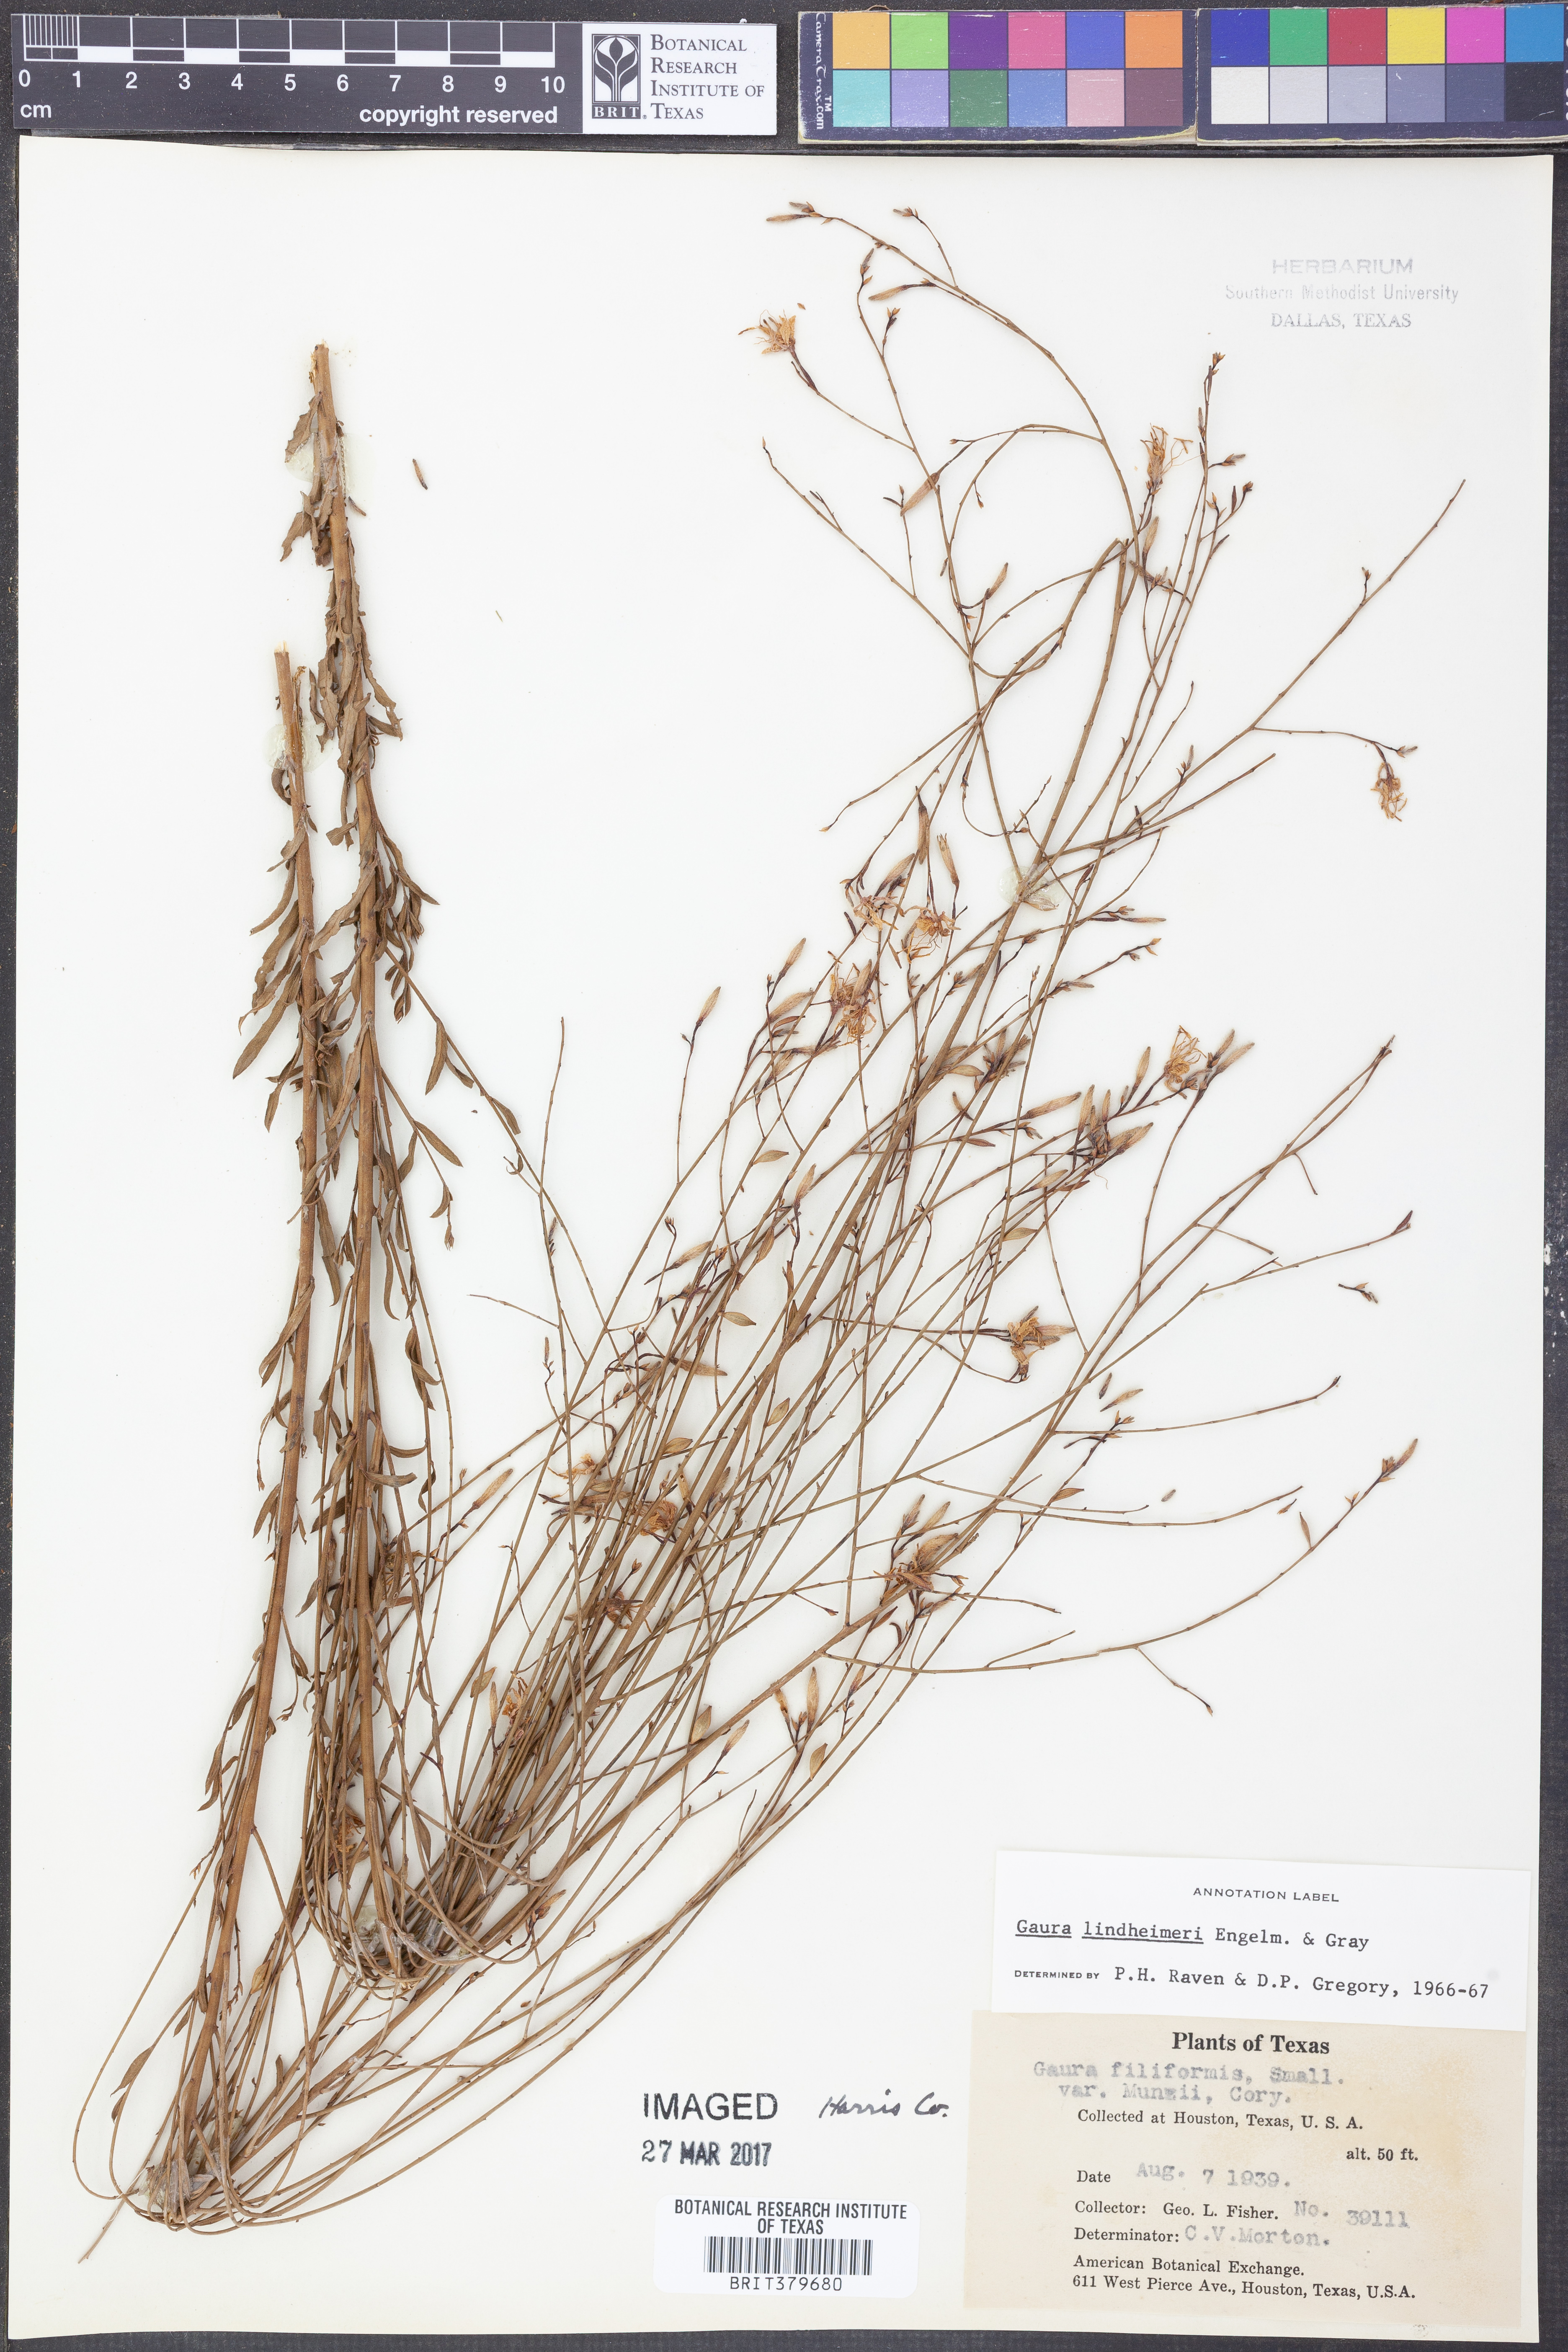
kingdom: Plantae
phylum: Tracheophyta
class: Magnoliopsida
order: Myrtales
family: Onagraceae
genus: Oenothera
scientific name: Oenothera lindheimeri
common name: Lindheimer's beeblossom
